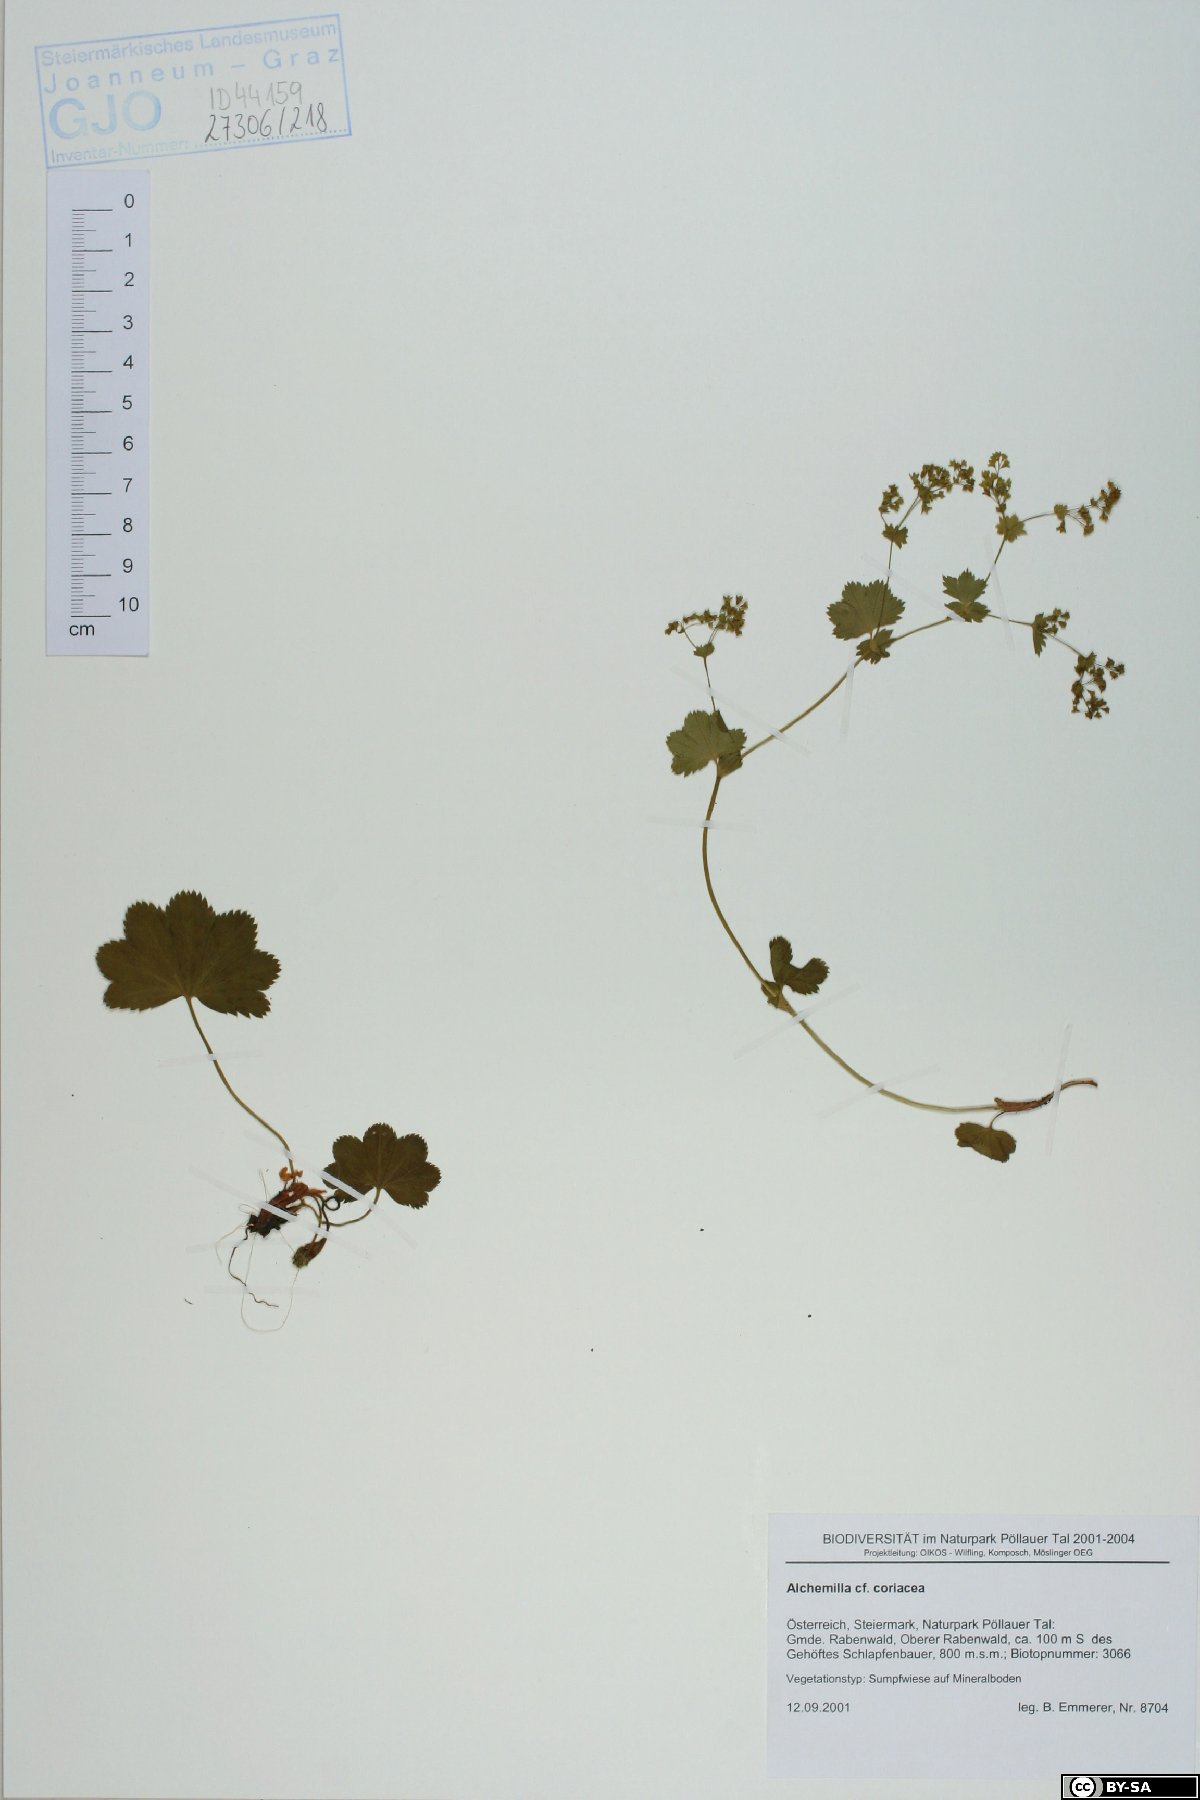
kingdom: Plantae
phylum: Tracheophyta
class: Magnoliopsida
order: Rosales
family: Rosaceae
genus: Alchemilla
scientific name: Alchemilla coriacea
